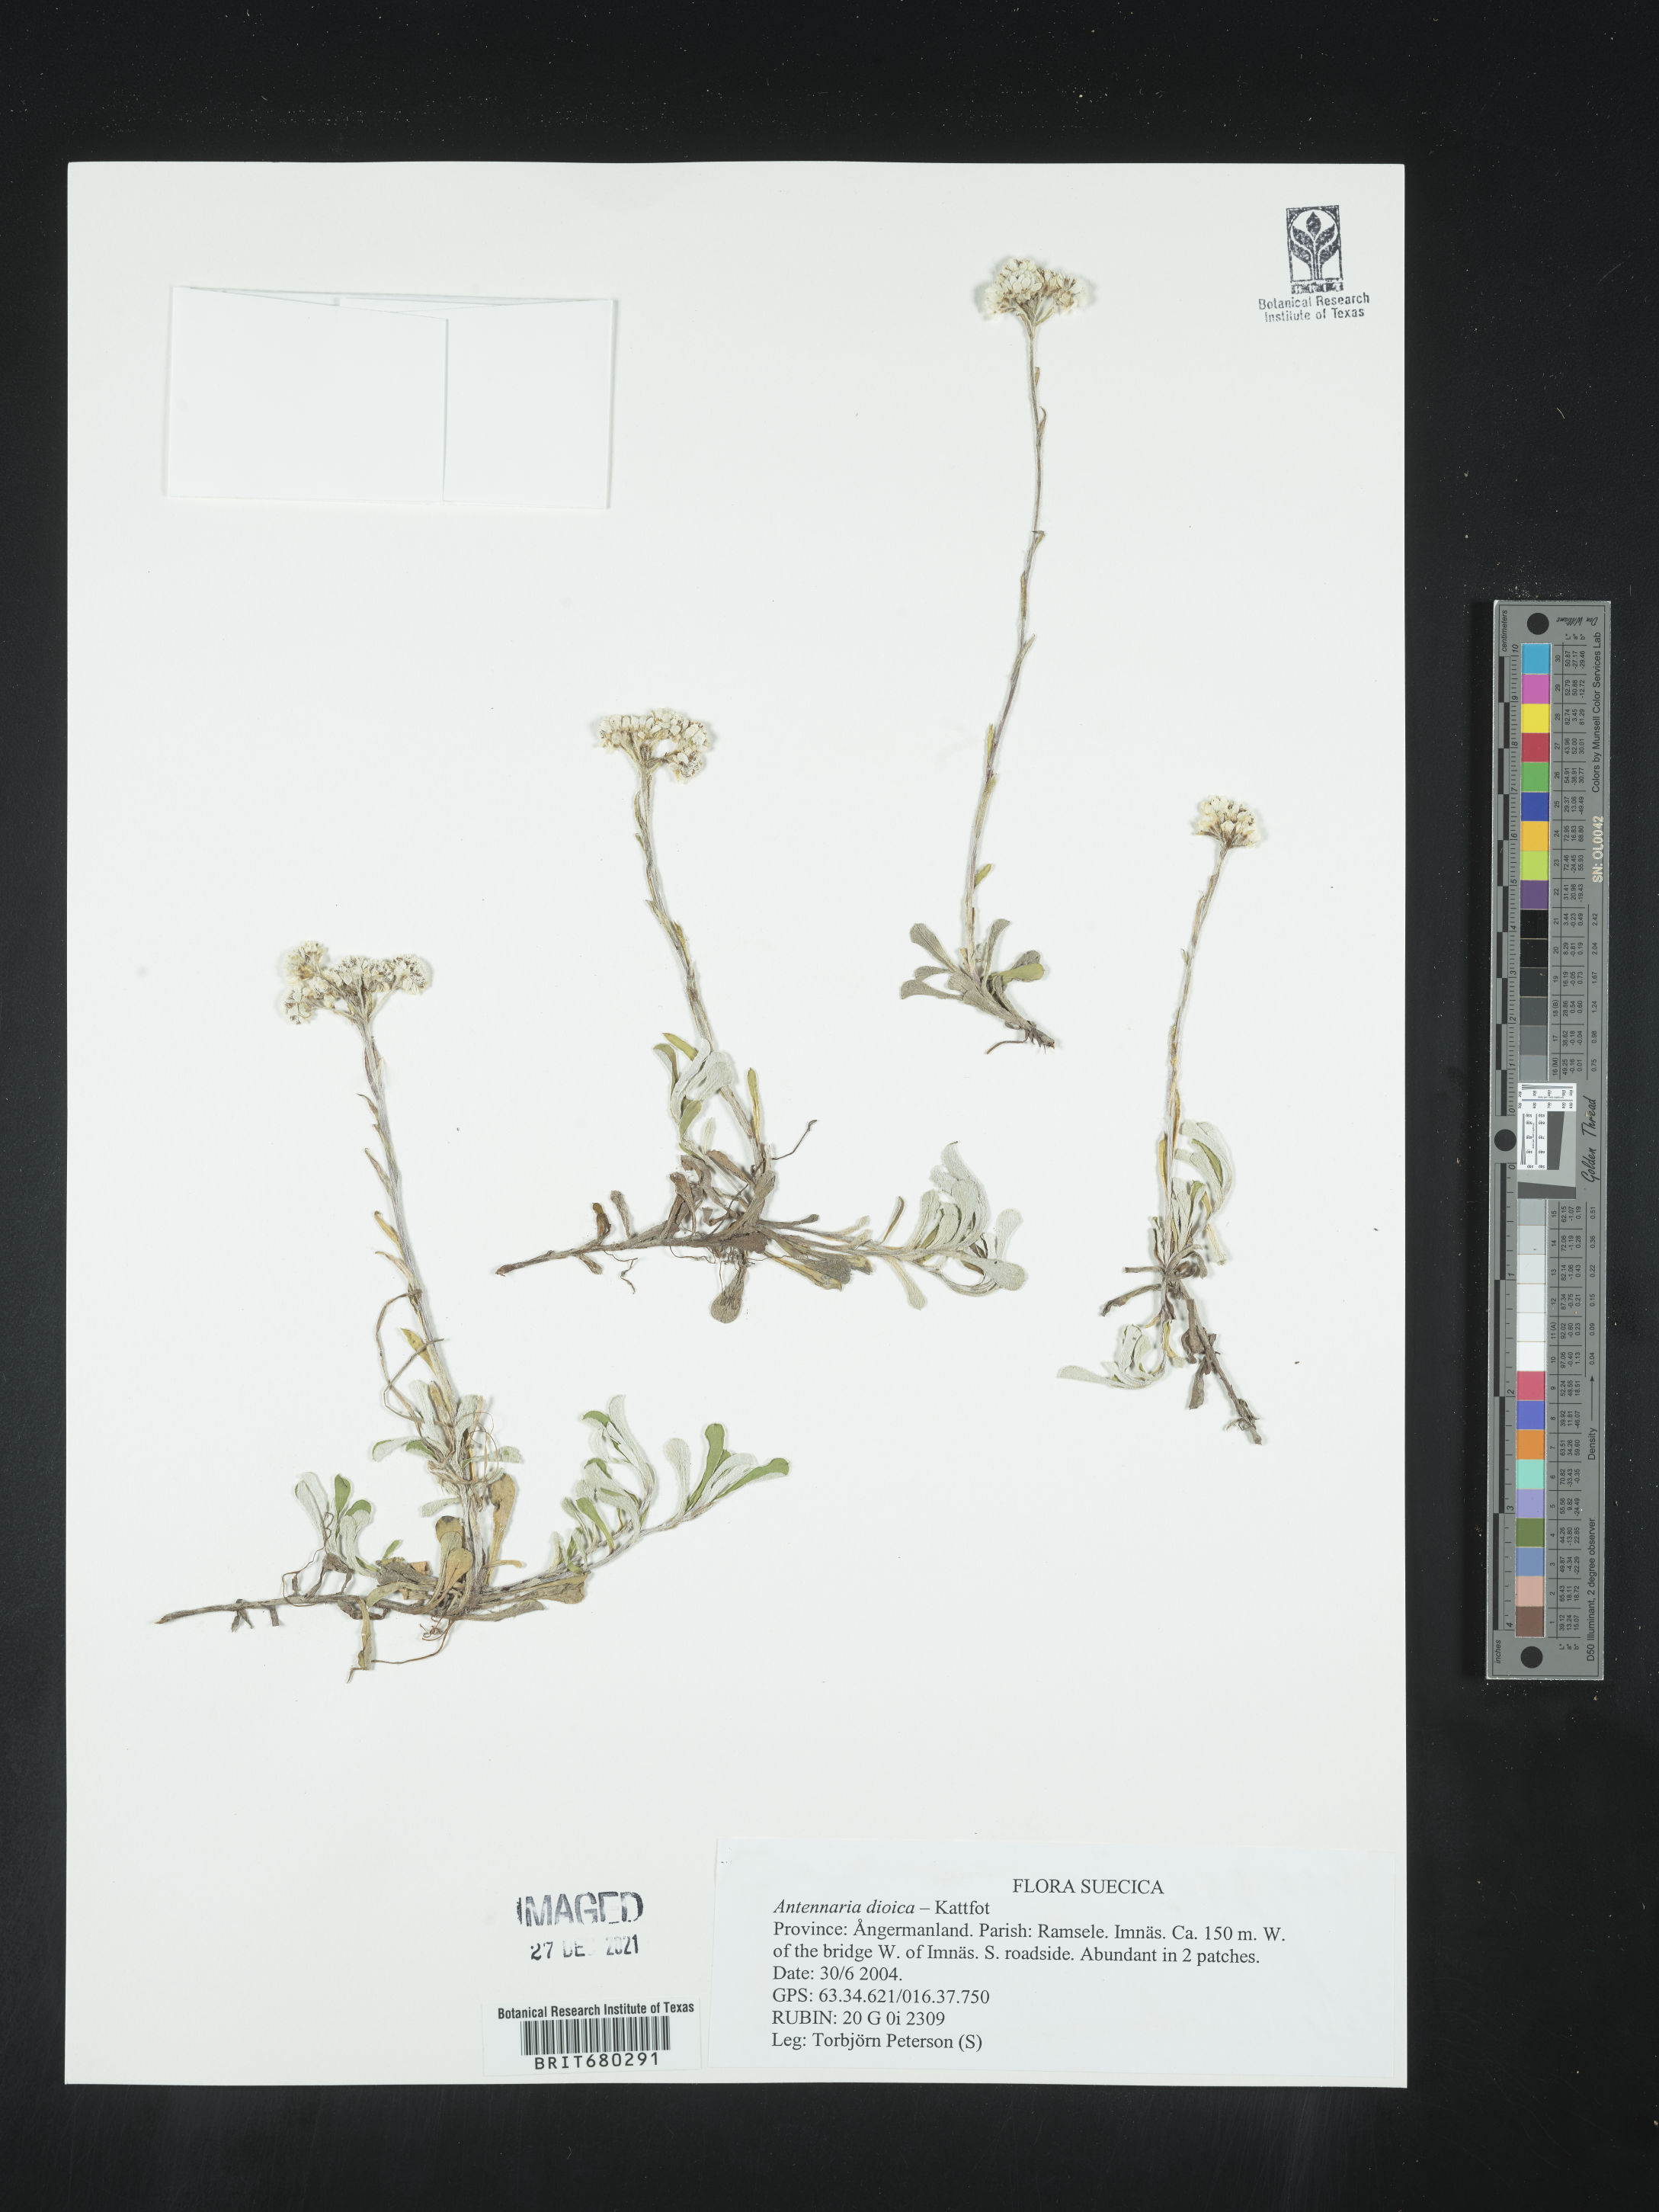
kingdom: Plantae
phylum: Tracheophyta
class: Magnoliopsida
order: Asterales
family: Asteraceae
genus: Antennaria
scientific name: Antennaria dioica
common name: Mountain everlasting
